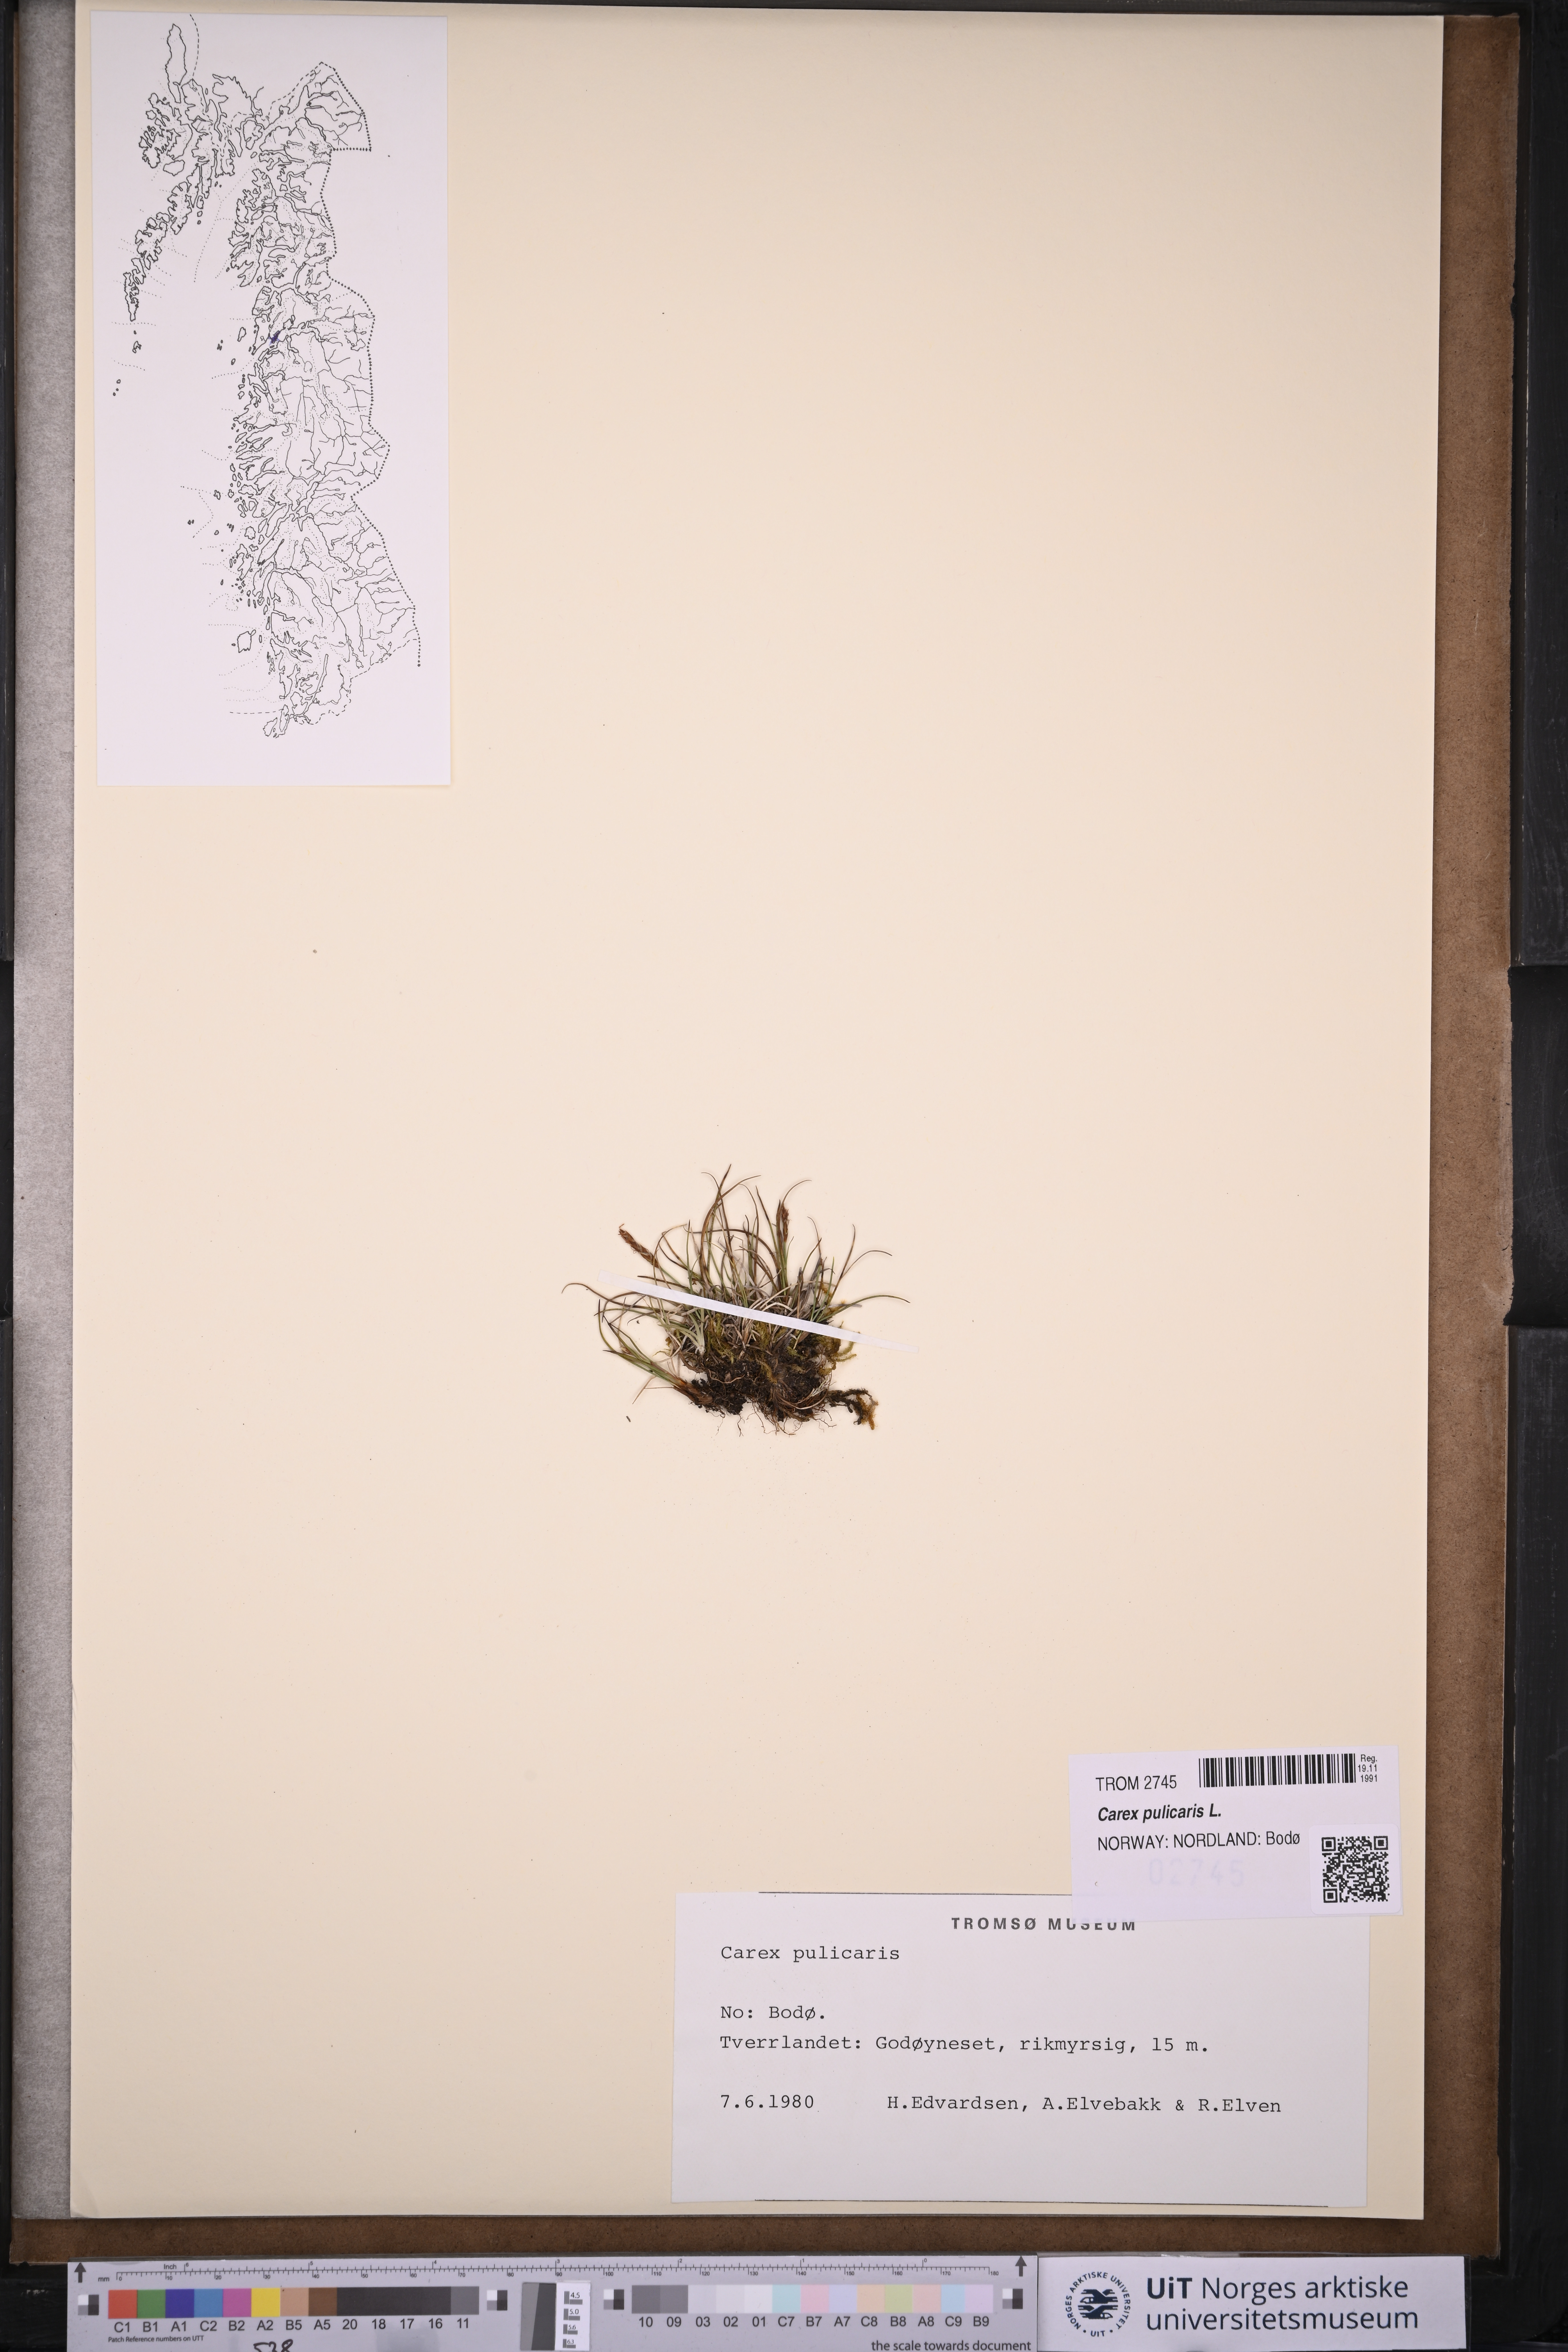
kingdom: Plantae
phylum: Tracheophyta
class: Liliopsida
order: Poales
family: Cyperaceae
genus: Carex
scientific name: Carex pulicaris
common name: Flea sedge
